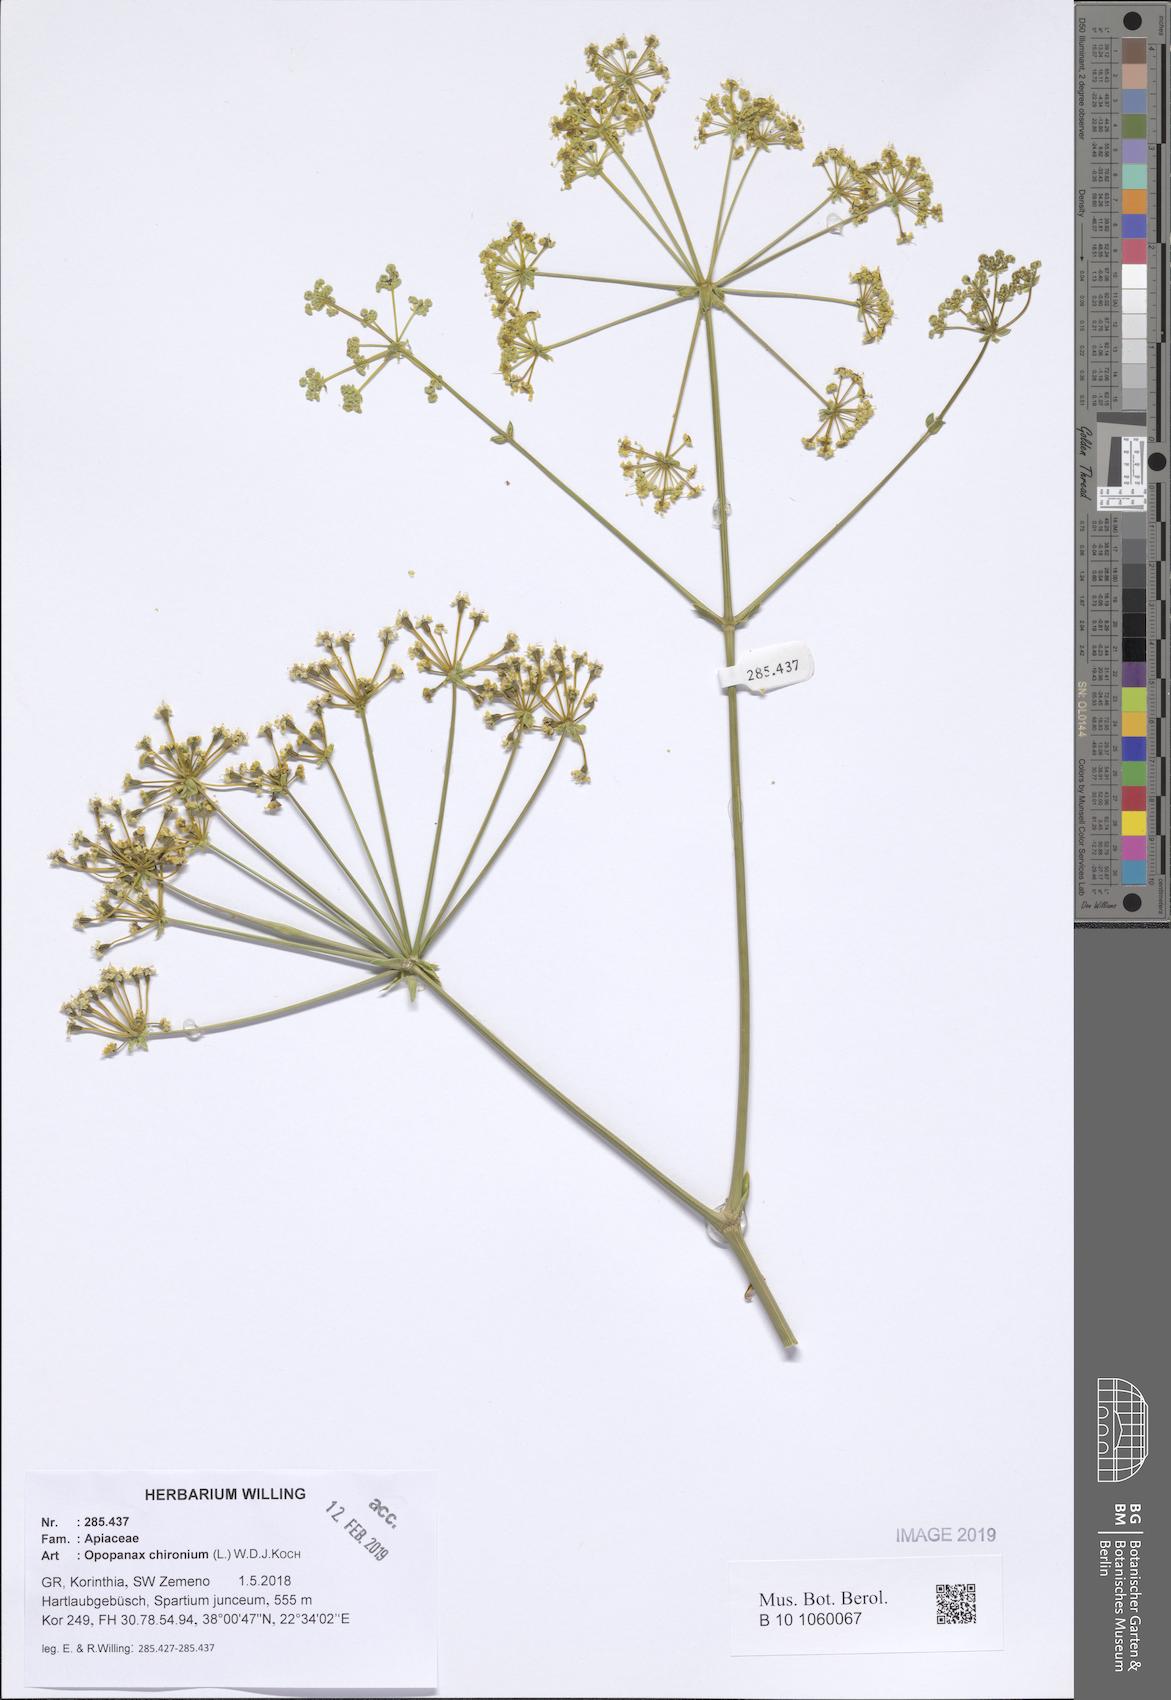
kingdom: Plantae
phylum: Tracheophyta
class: Magnoliopsida
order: Apiales
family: Apiaceae
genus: Opopanax
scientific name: Opopanax chironium
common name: Hercules-all-heal
